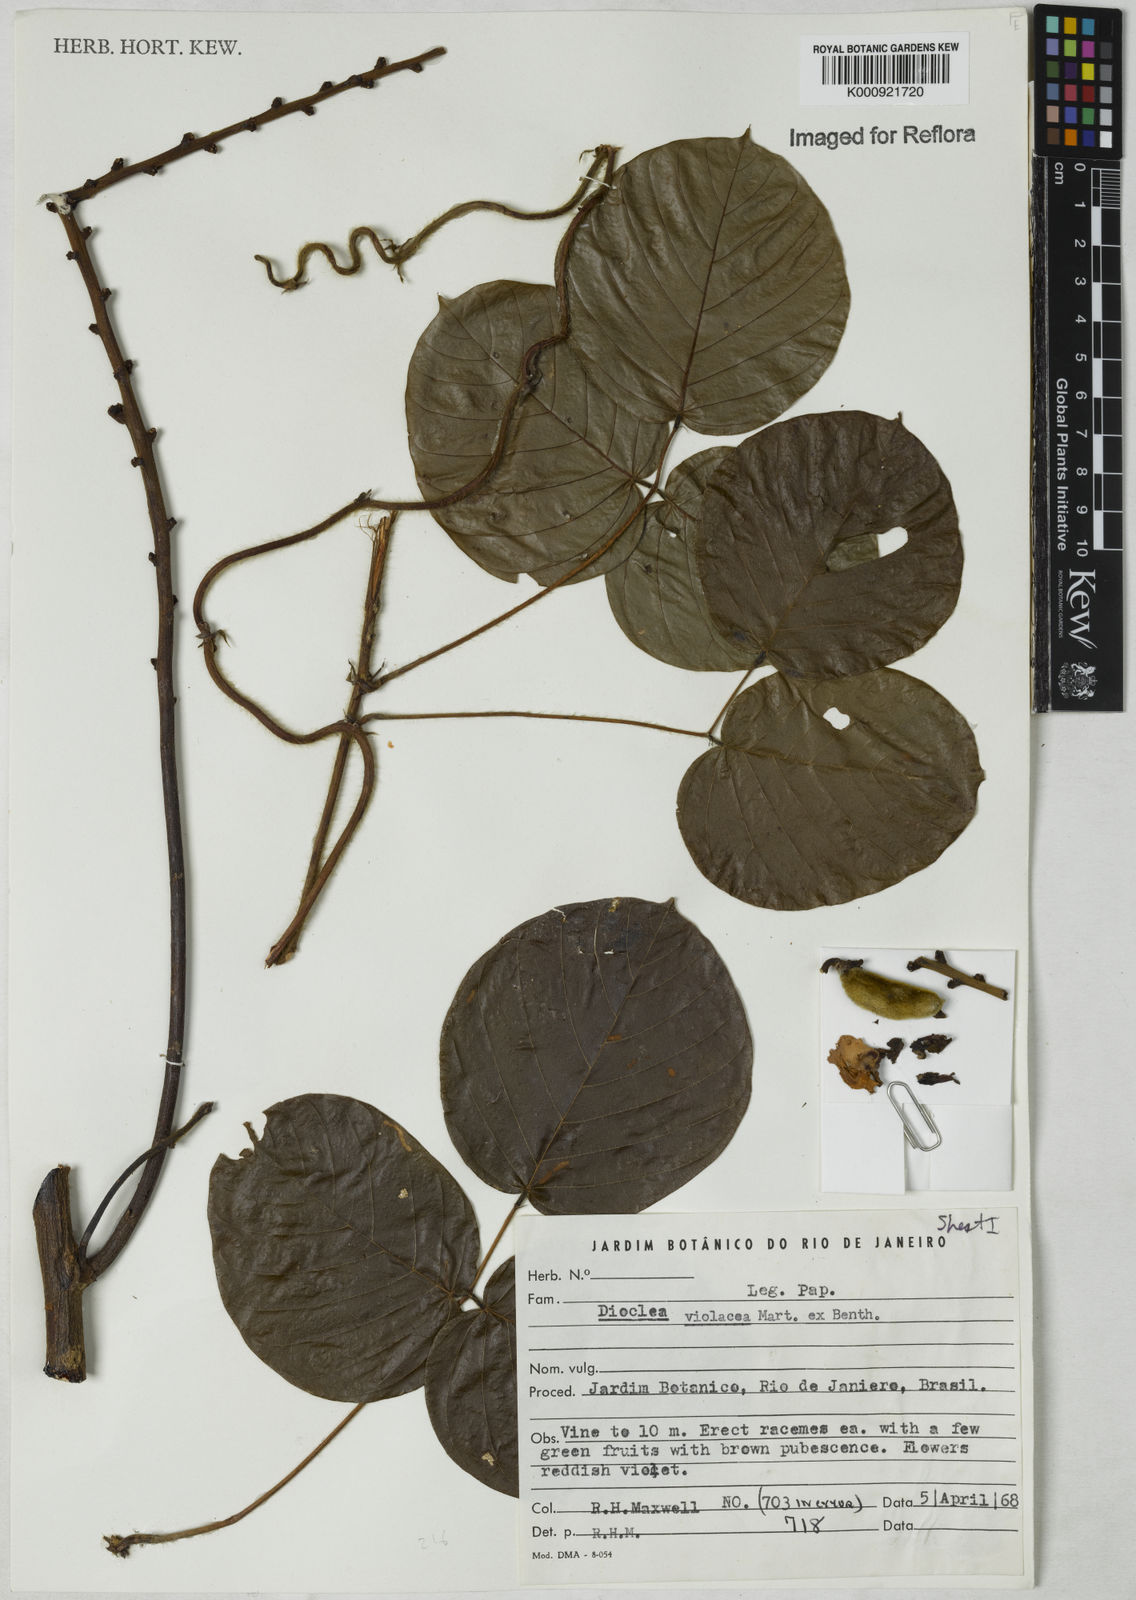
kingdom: Plantae
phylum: Tracheophyta
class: Magnoliopsida
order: Fabales
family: Fabaceae
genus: Macropsychanthus
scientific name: Macropsychanthus violaceus
